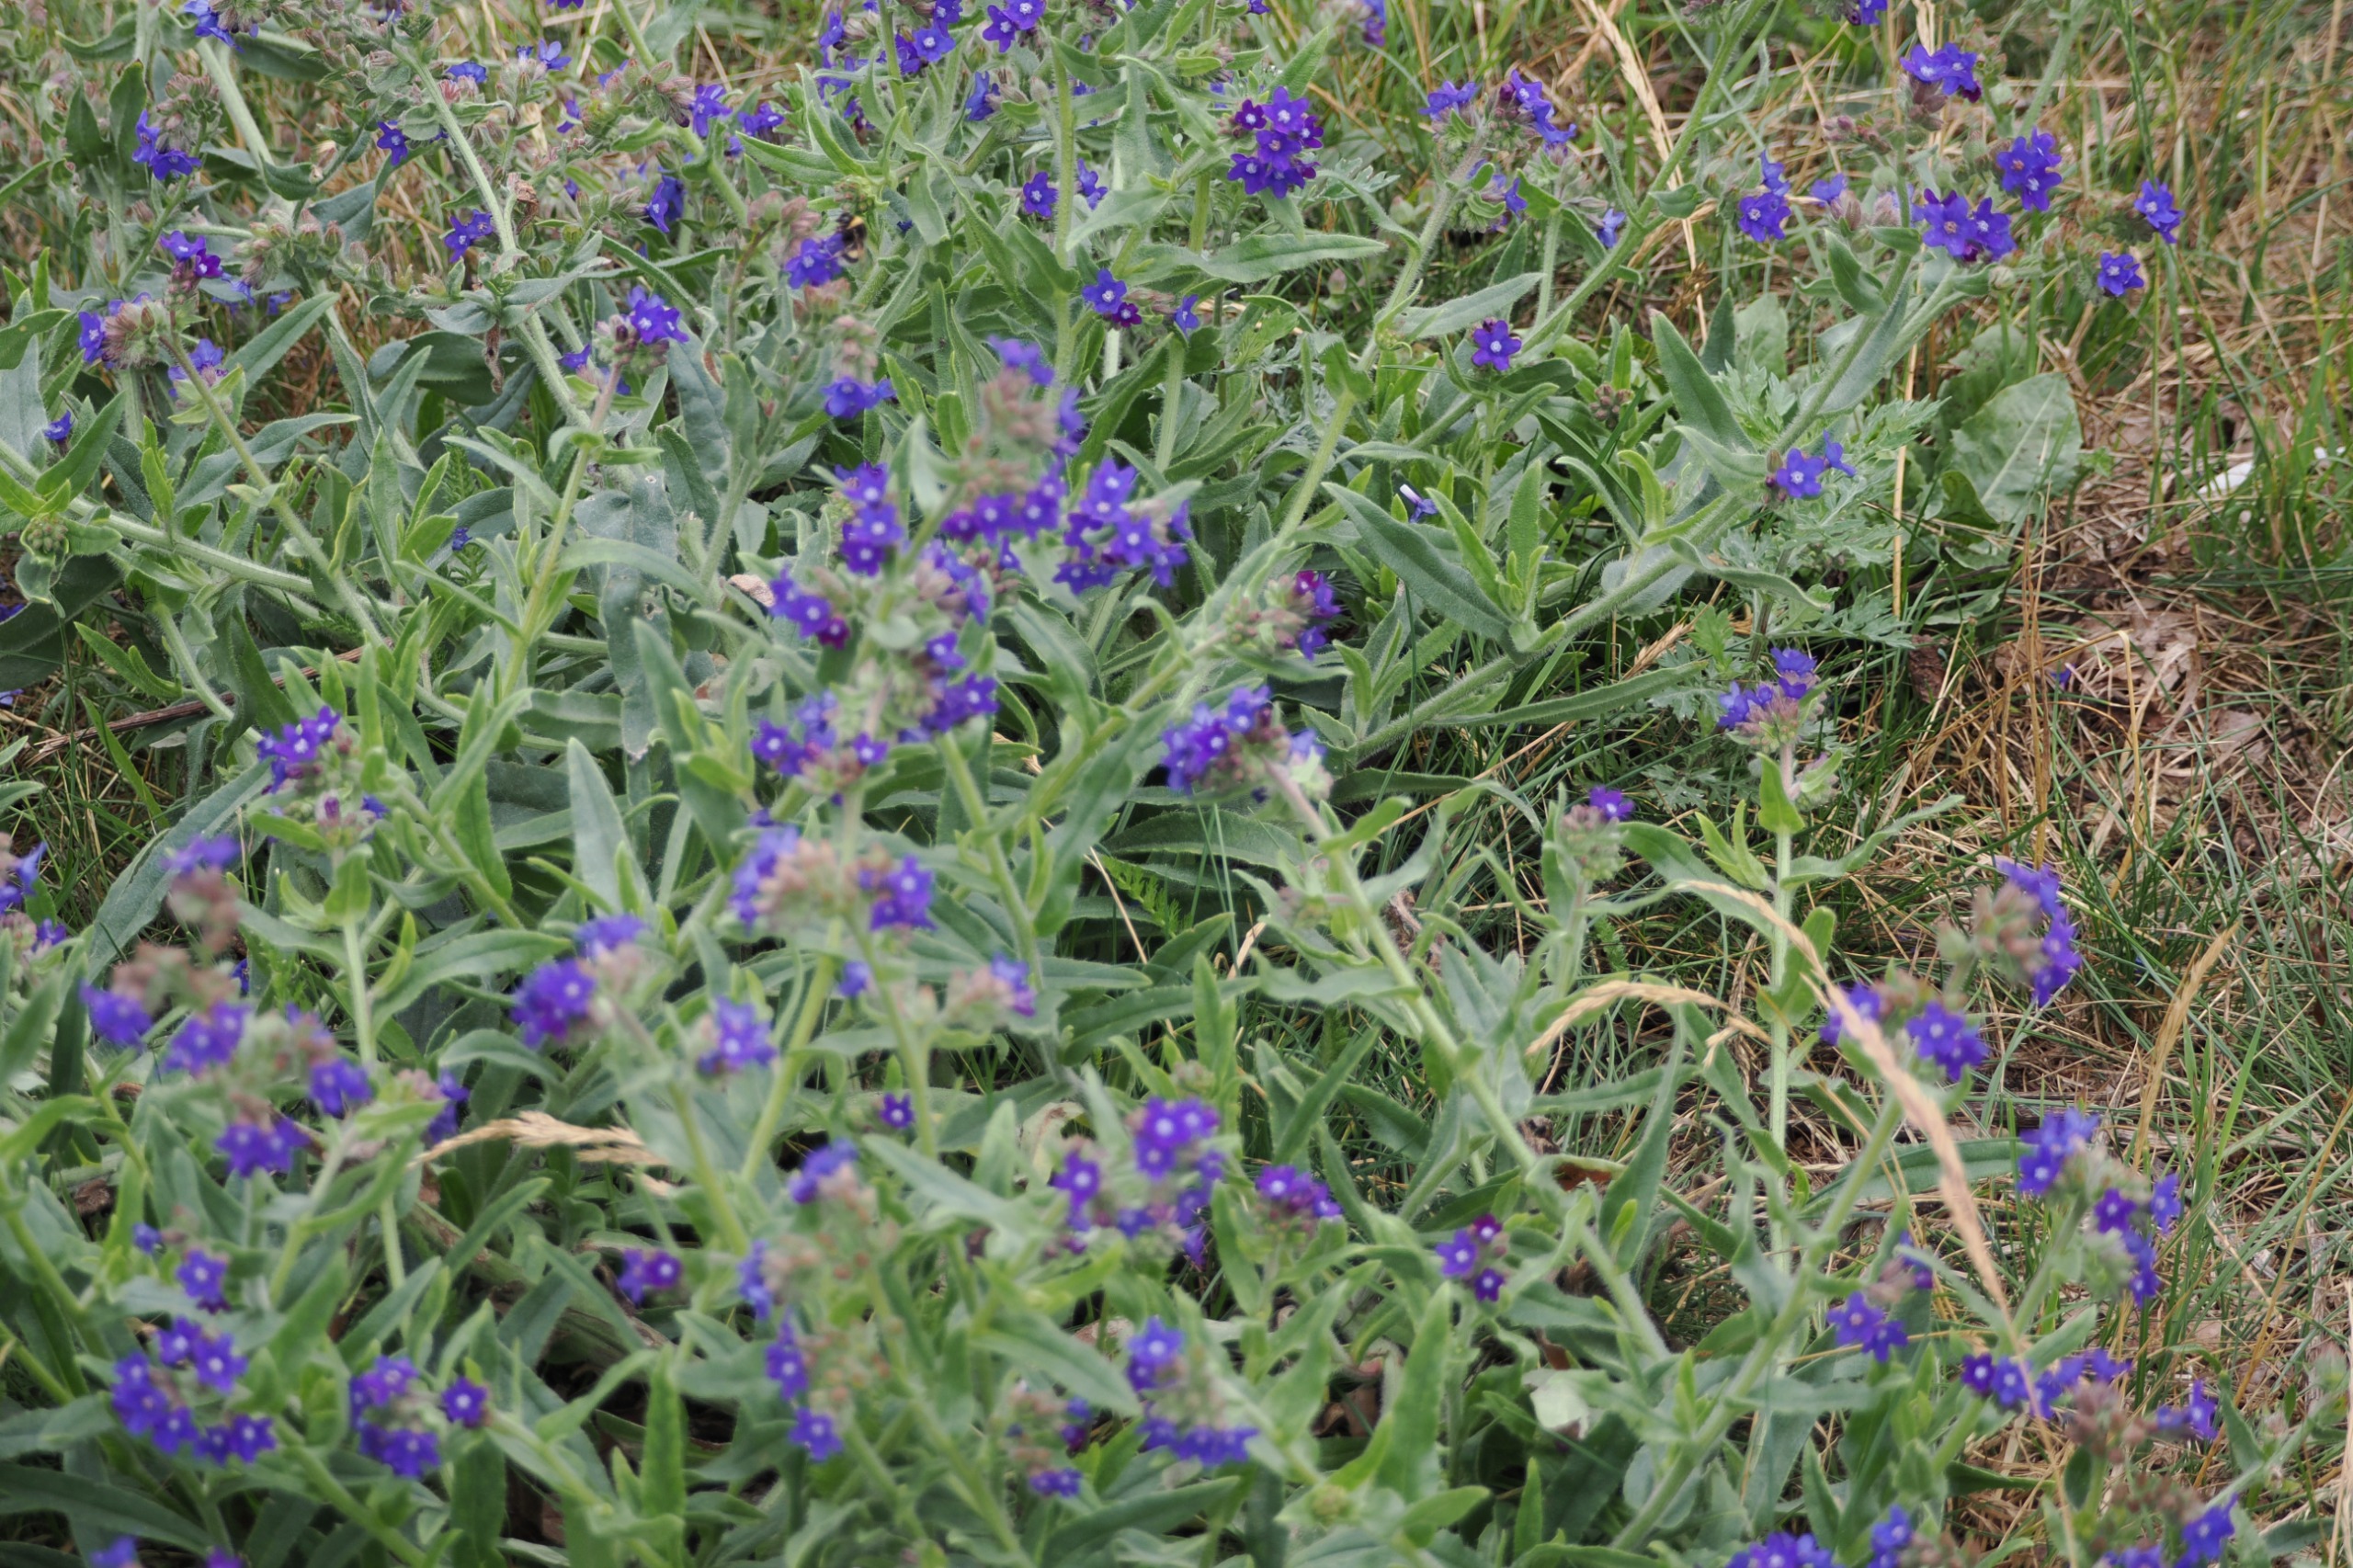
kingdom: Plantae
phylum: Tracheophyta
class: Magnoliopsida
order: Boraginales
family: Boraginaceae
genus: Anchusa
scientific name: Anchusa officinalis
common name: Læge-oksetunge
